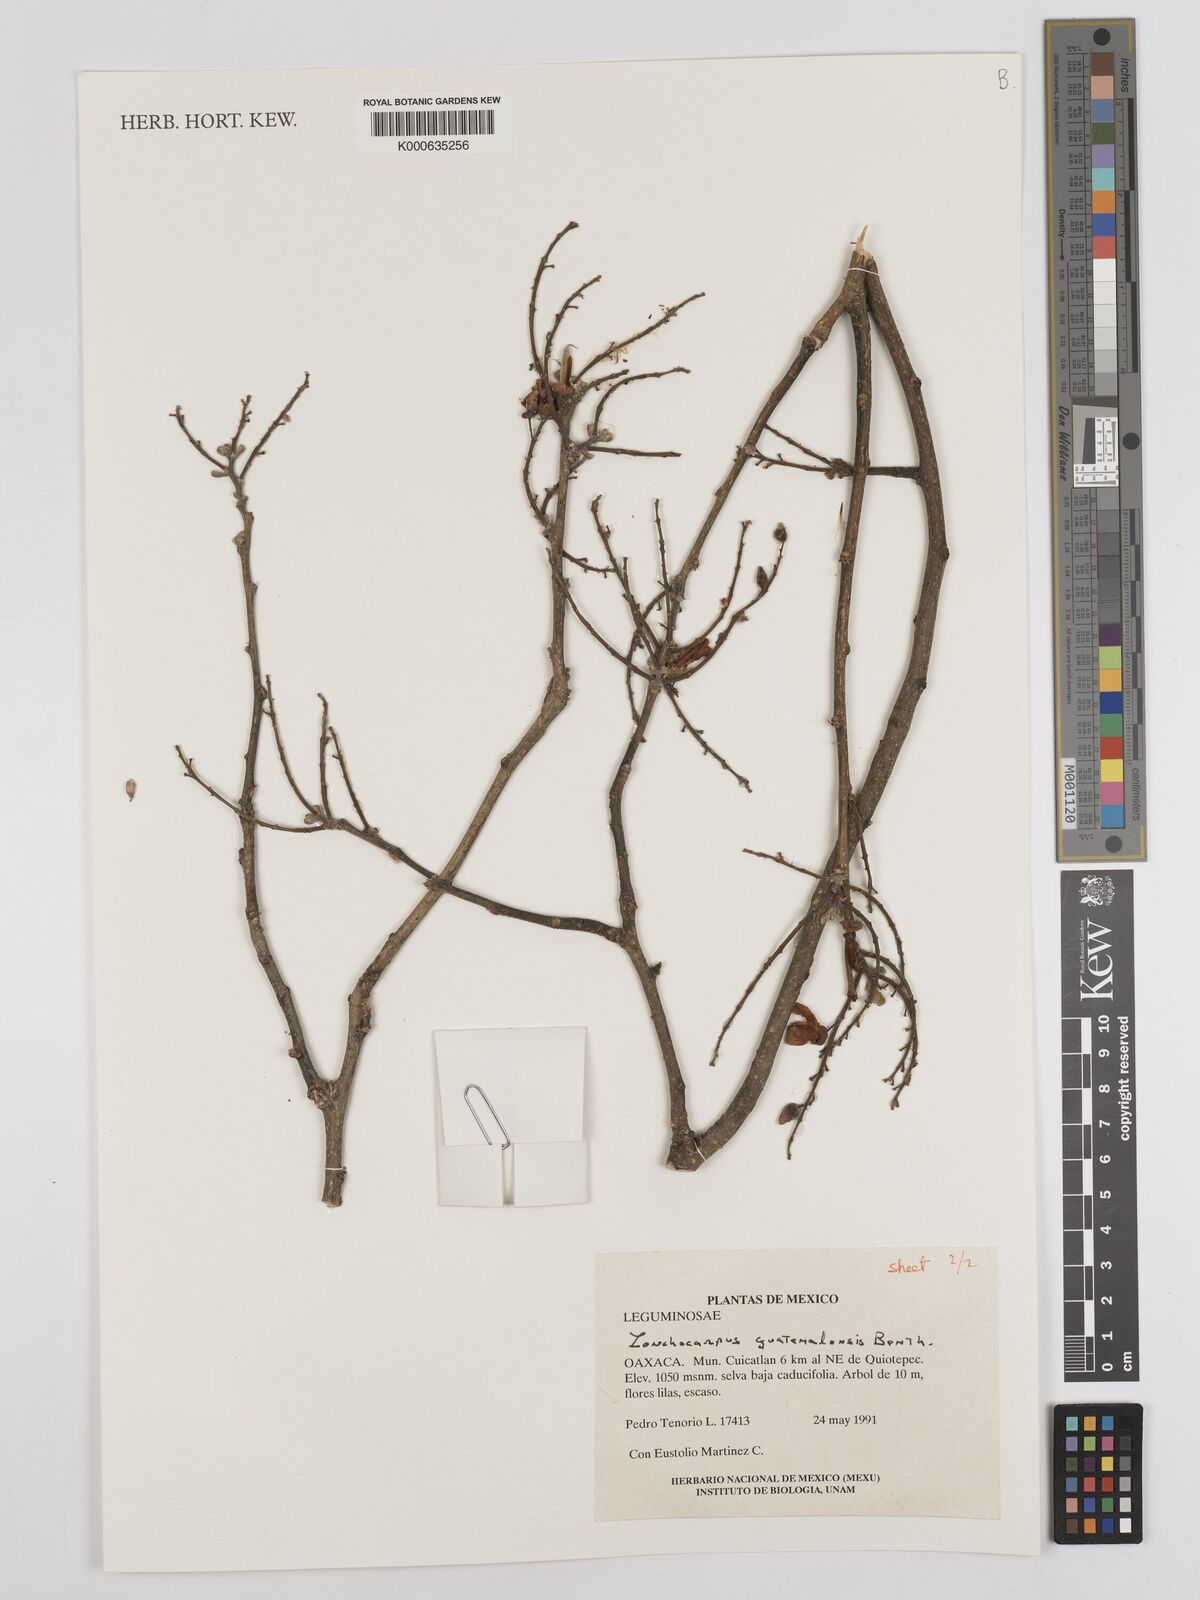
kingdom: Plantae
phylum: Tracheophyta
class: Magnoliopsida
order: Fabales
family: Fabaceae
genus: Lonchocarpus
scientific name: Lonchocarpus guatemalensis
